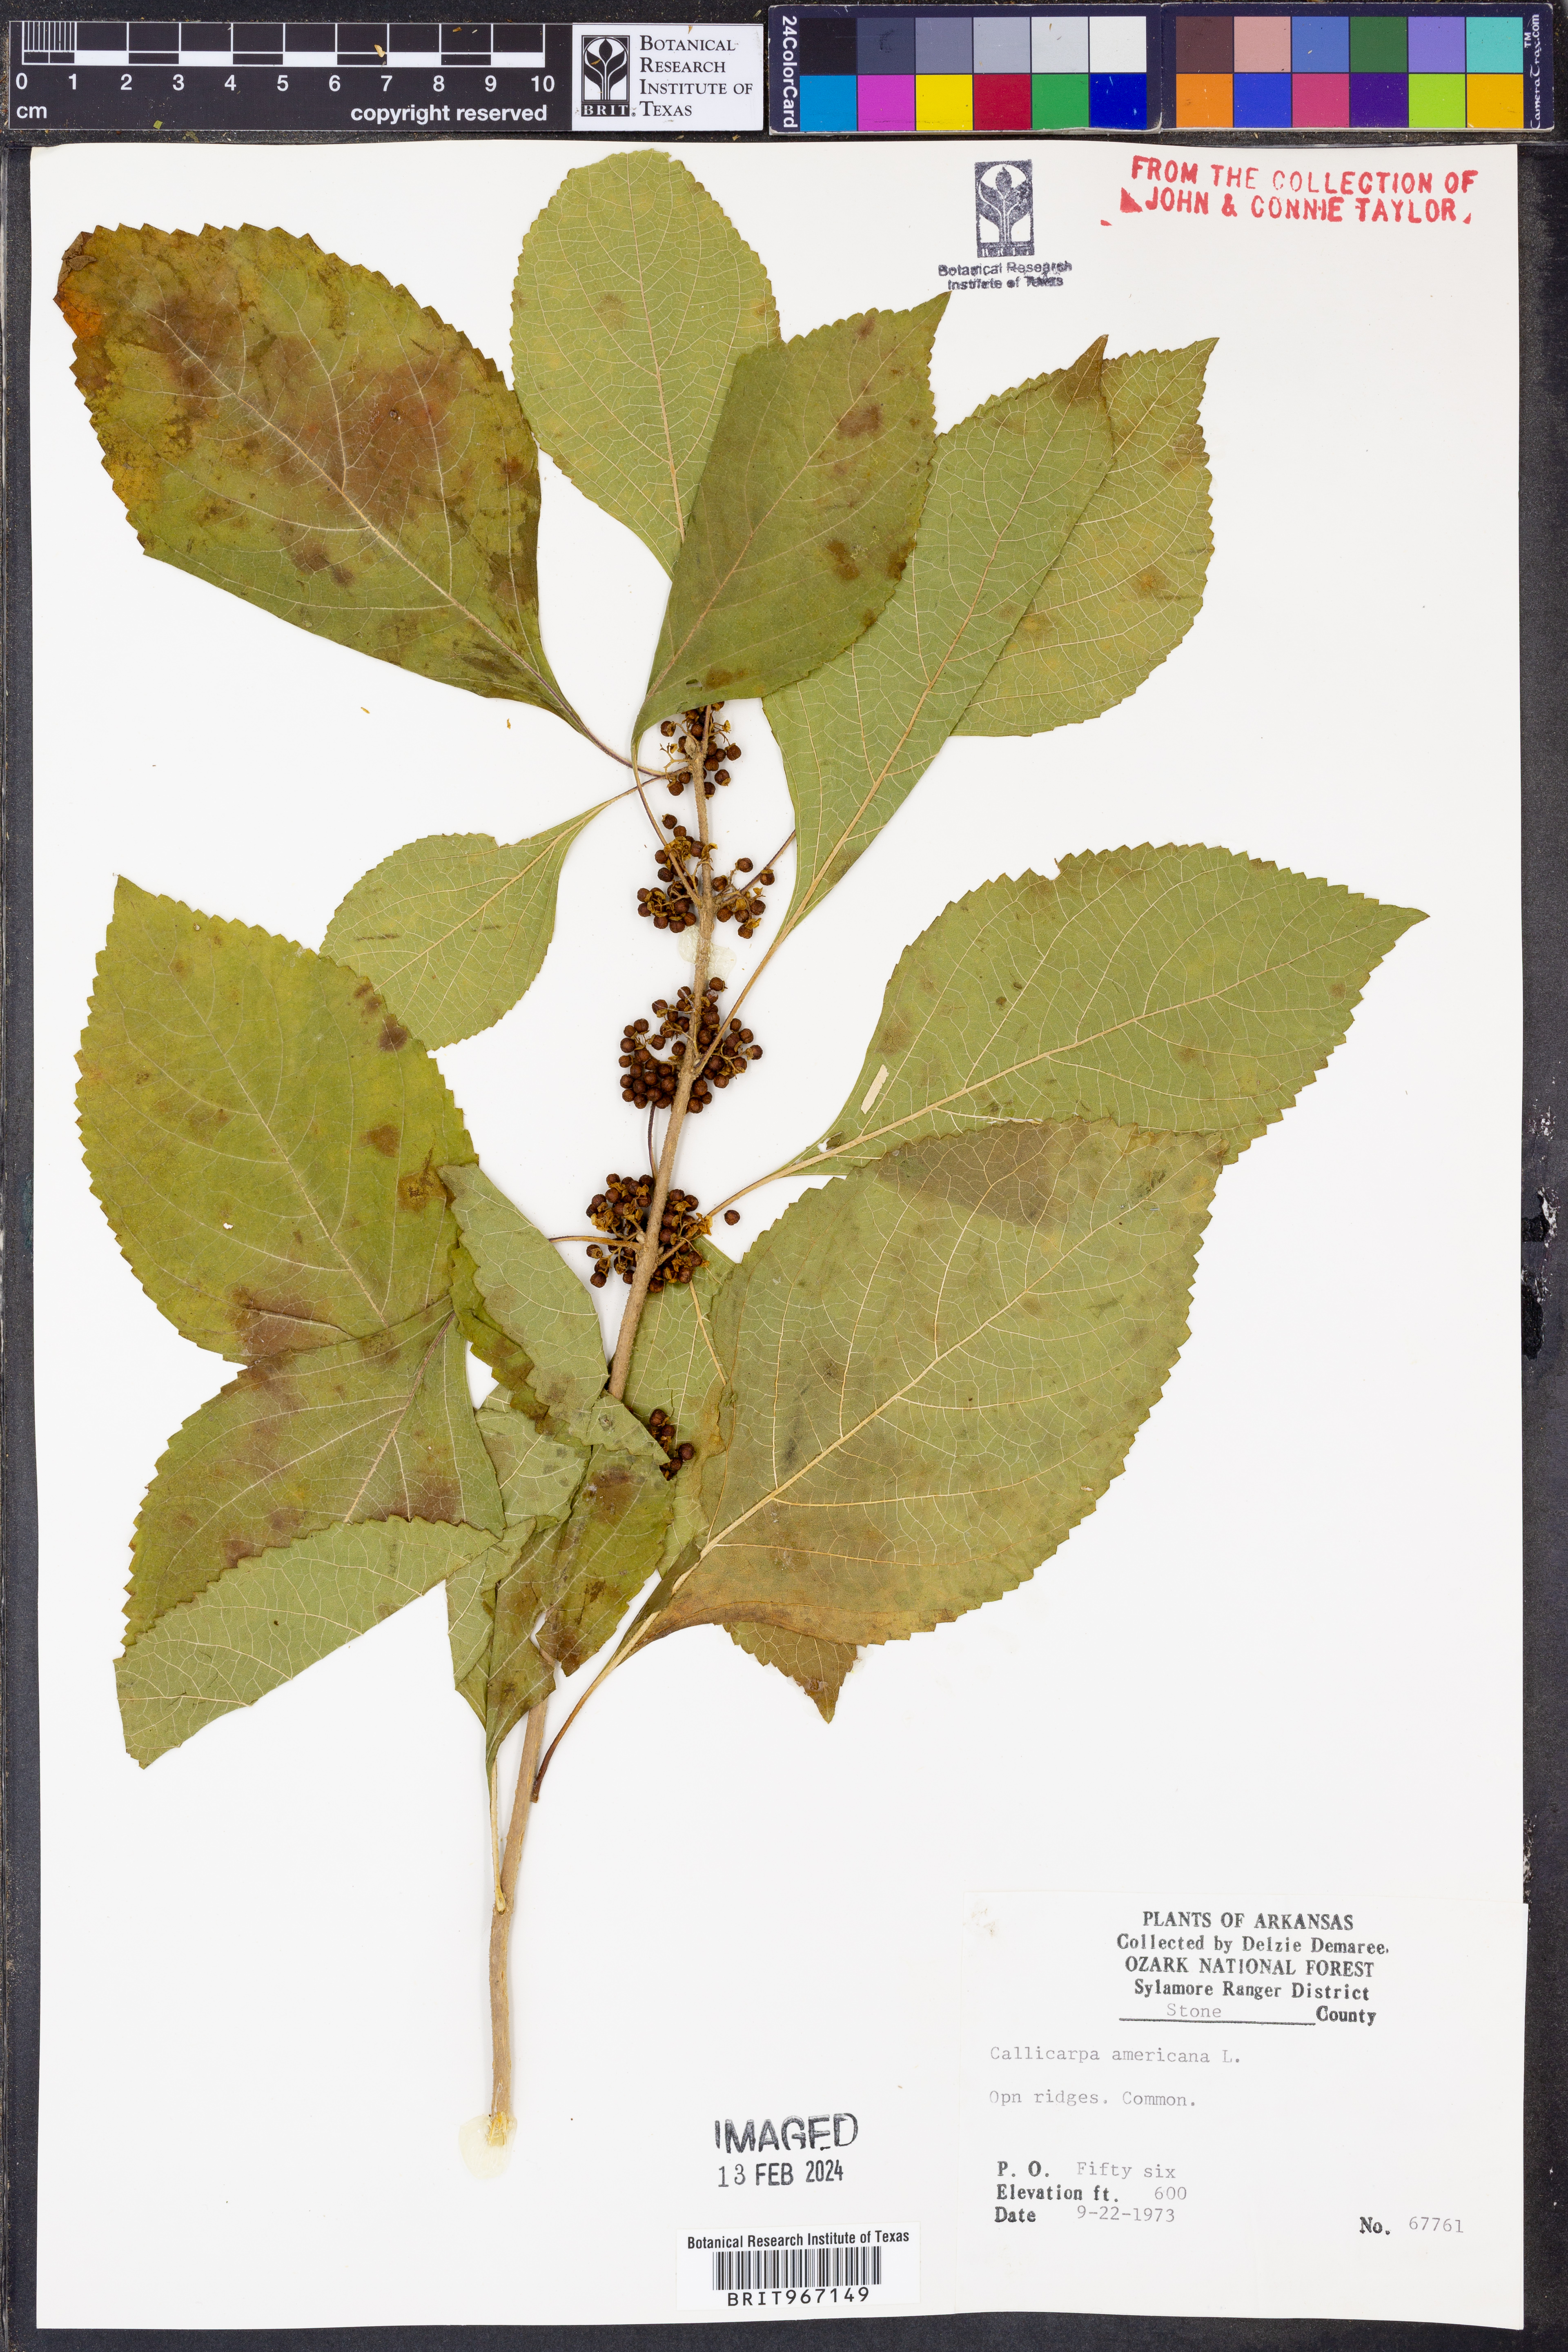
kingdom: Plantae
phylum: Tracheophyta
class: Magnoliopsida
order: Lamiales
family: Lamiaceae
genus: Callicarpa
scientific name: Callicarpa americana
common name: American beautyberry
